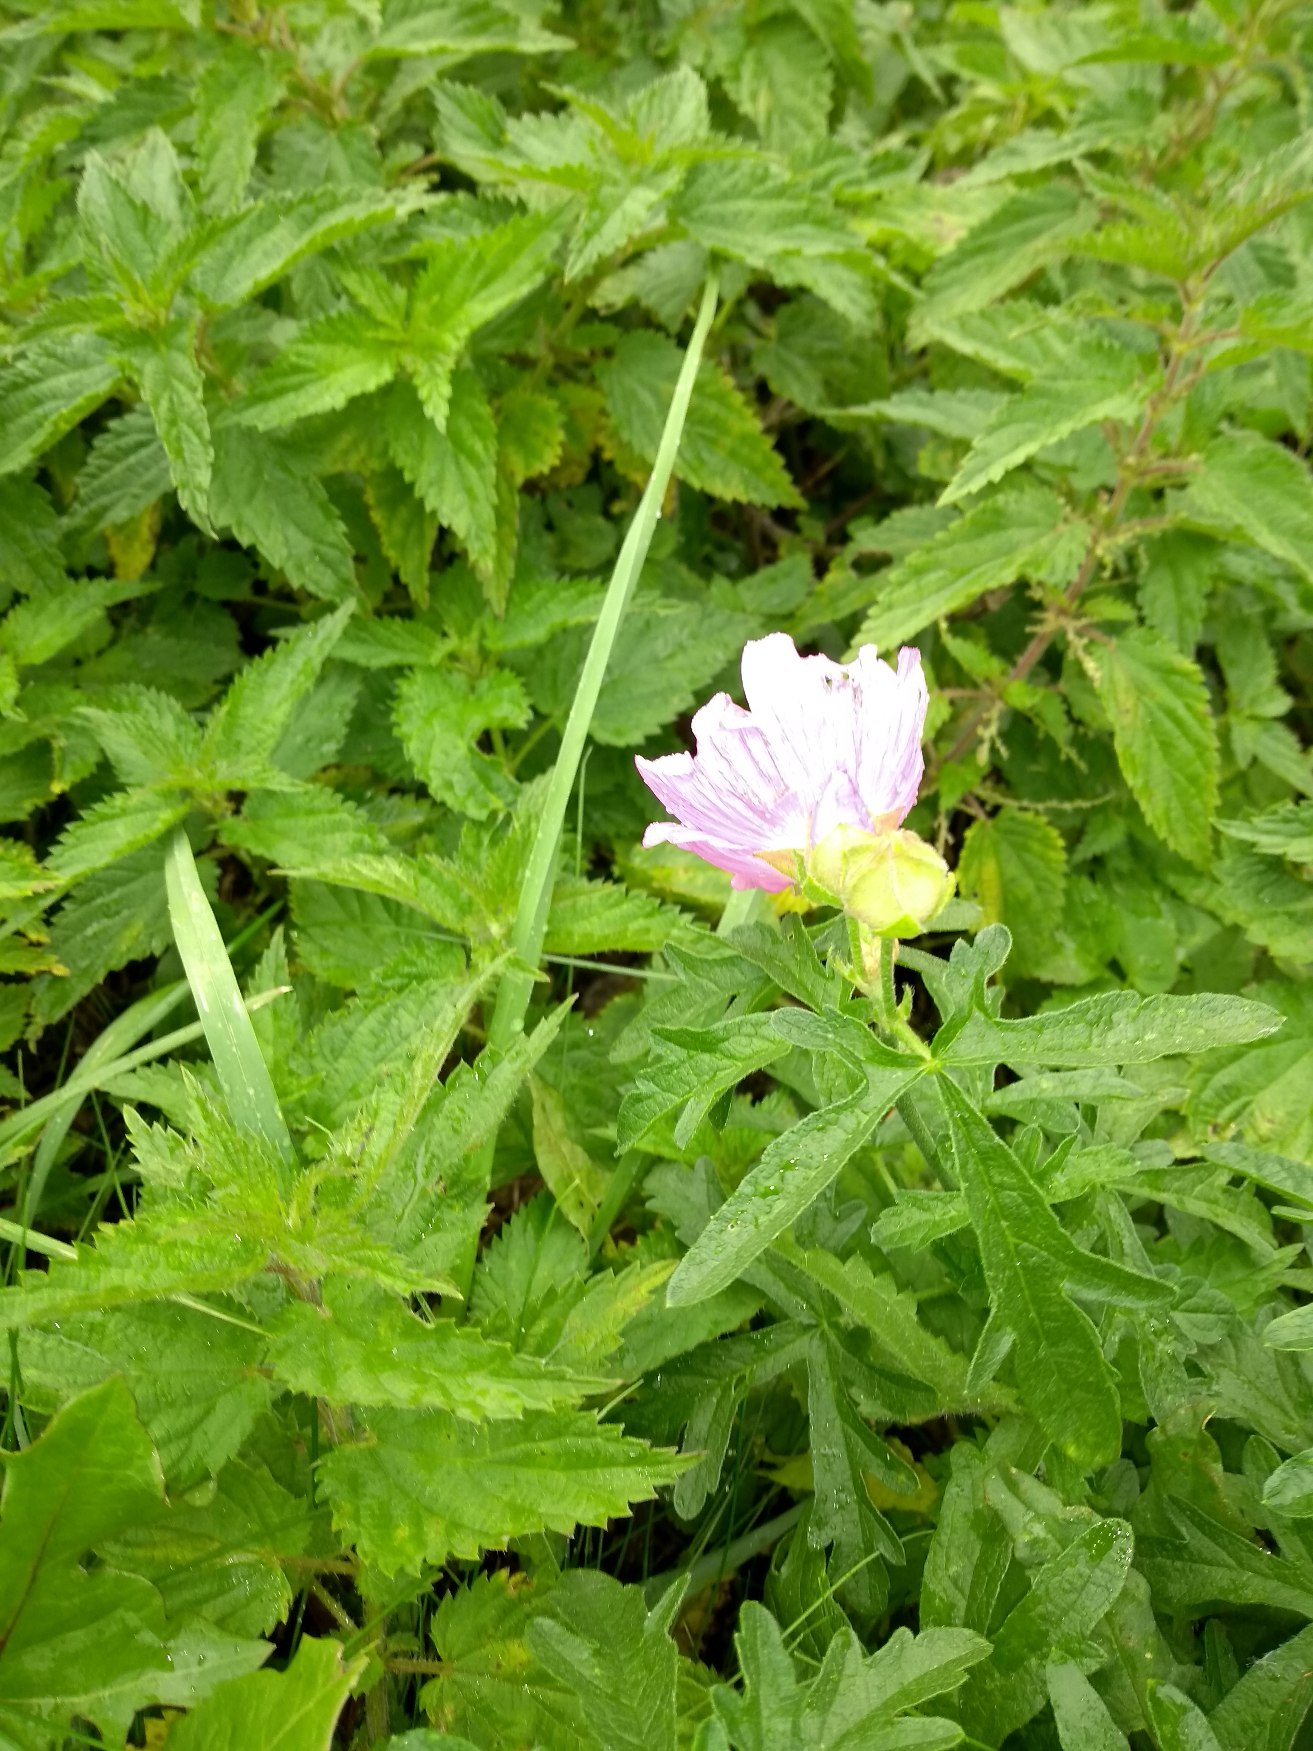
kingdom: Plantae
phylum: Tracheophyta
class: Magnoliopsida
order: Malvales
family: Malvaceae
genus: Malva
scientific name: Malva alcea
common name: Rosen-katost
